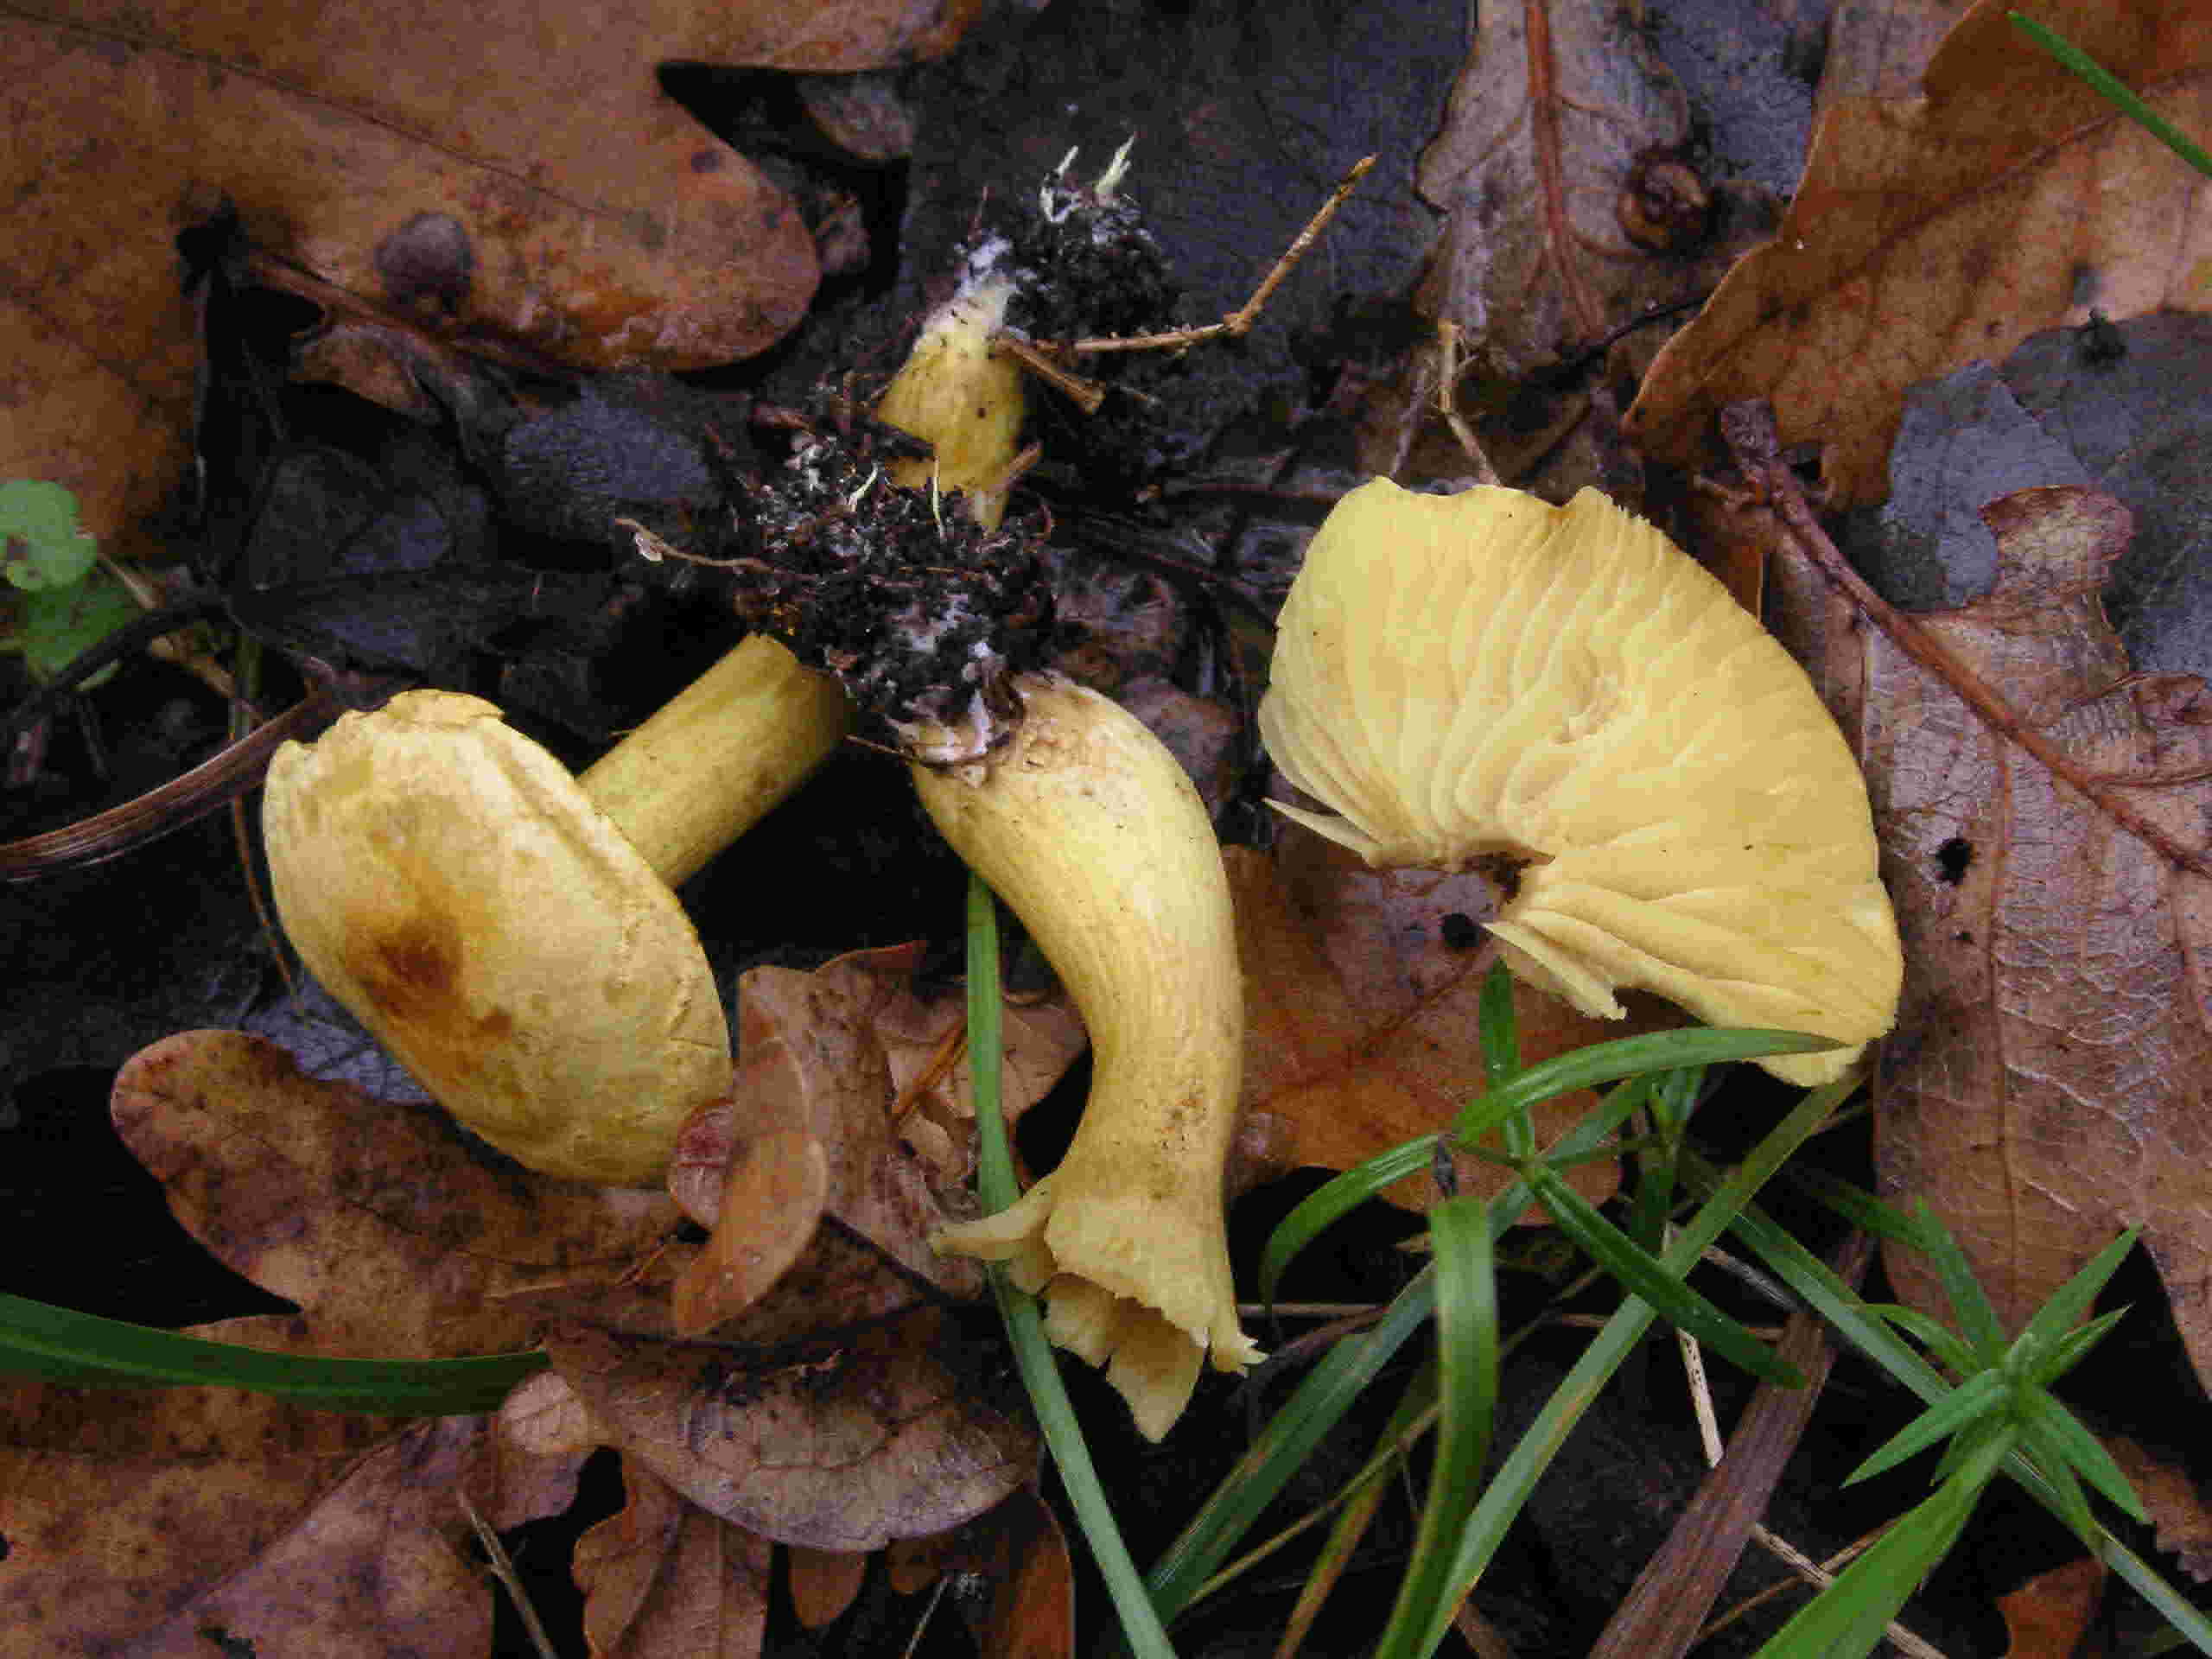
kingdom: Fungi
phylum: Basidiomycota
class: Agaricomycetes
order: Agaricales
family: Tricholomataceae
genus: Tricholoma
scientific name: Tricholoma sulphureum
